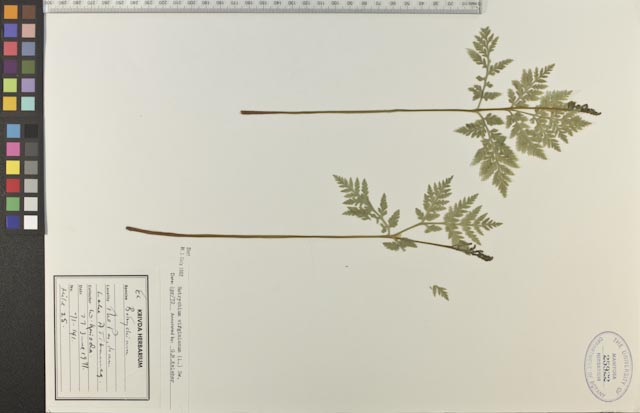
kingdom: Plantae
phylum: Tracheophyta
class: Polypodiopsida
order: Ophioglossales
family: Ophioglossaceae
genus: Botrypus
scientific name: Botrypus virginianus
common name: Common grapefern
